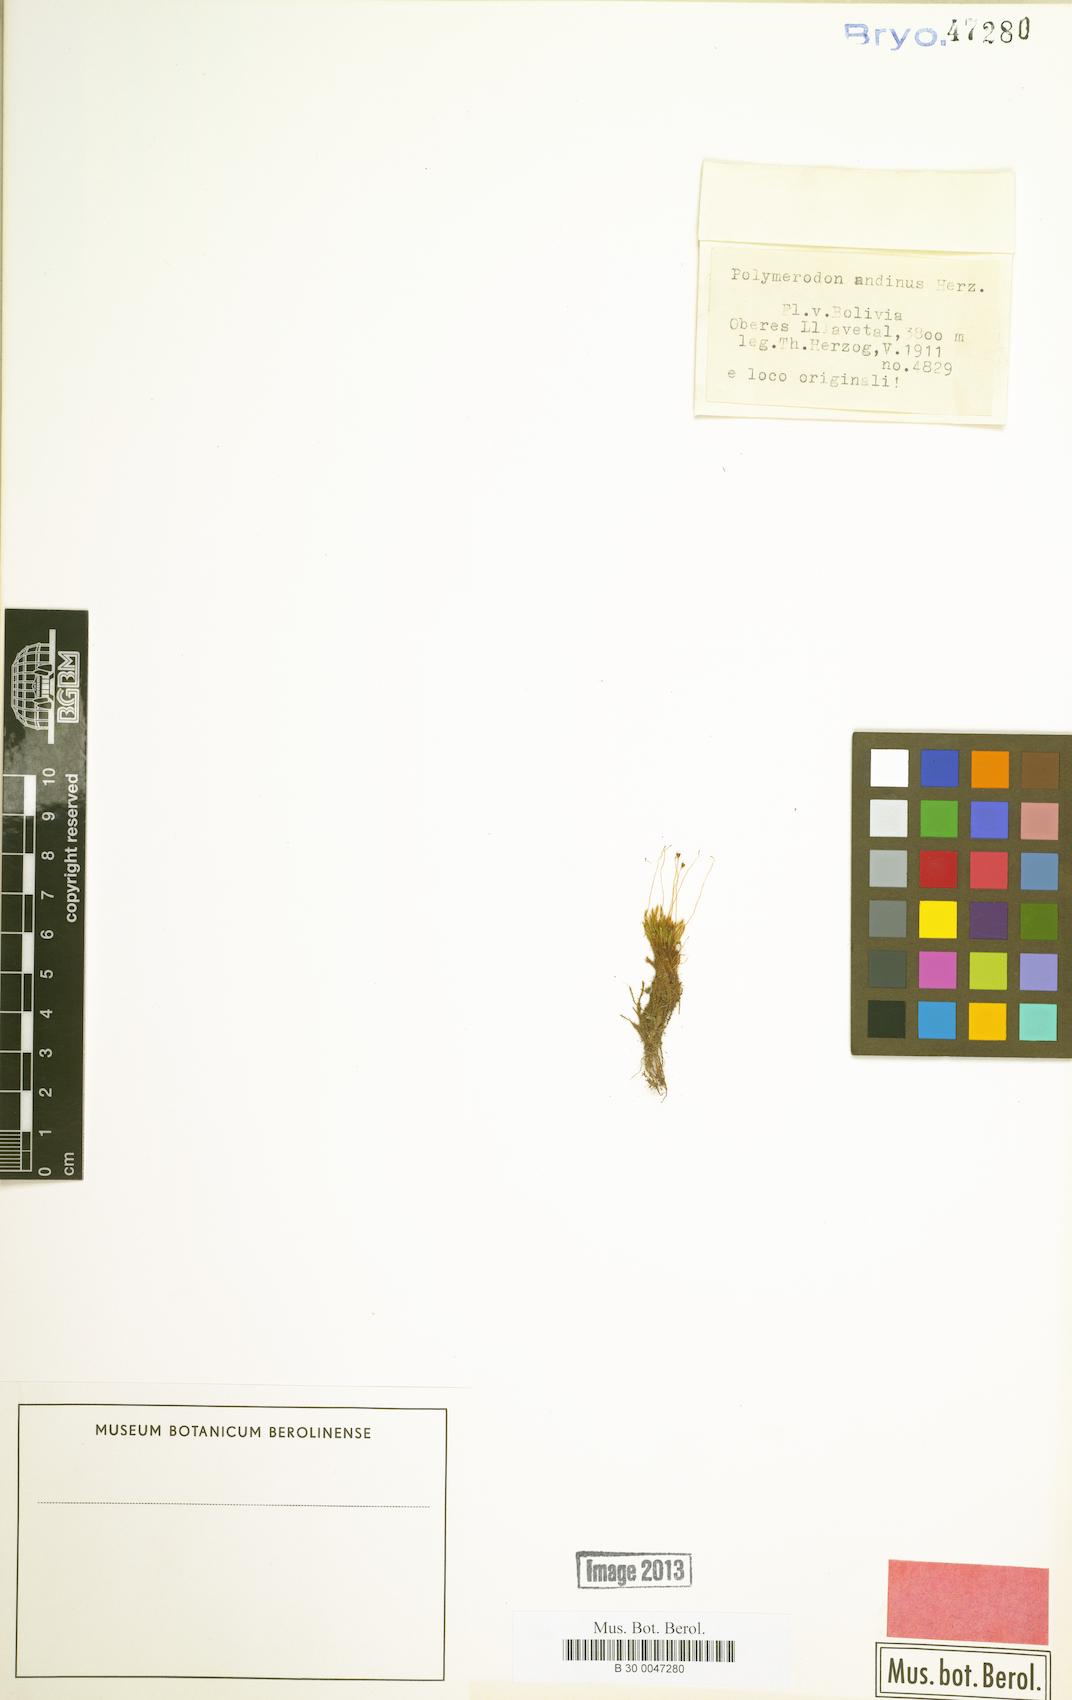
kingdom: Plantae
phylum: Bryophyta
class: Bryopsida
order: Dicranales
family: Aongstroemiaceae
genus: Polymerodon
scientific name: Polymerodon andinus
